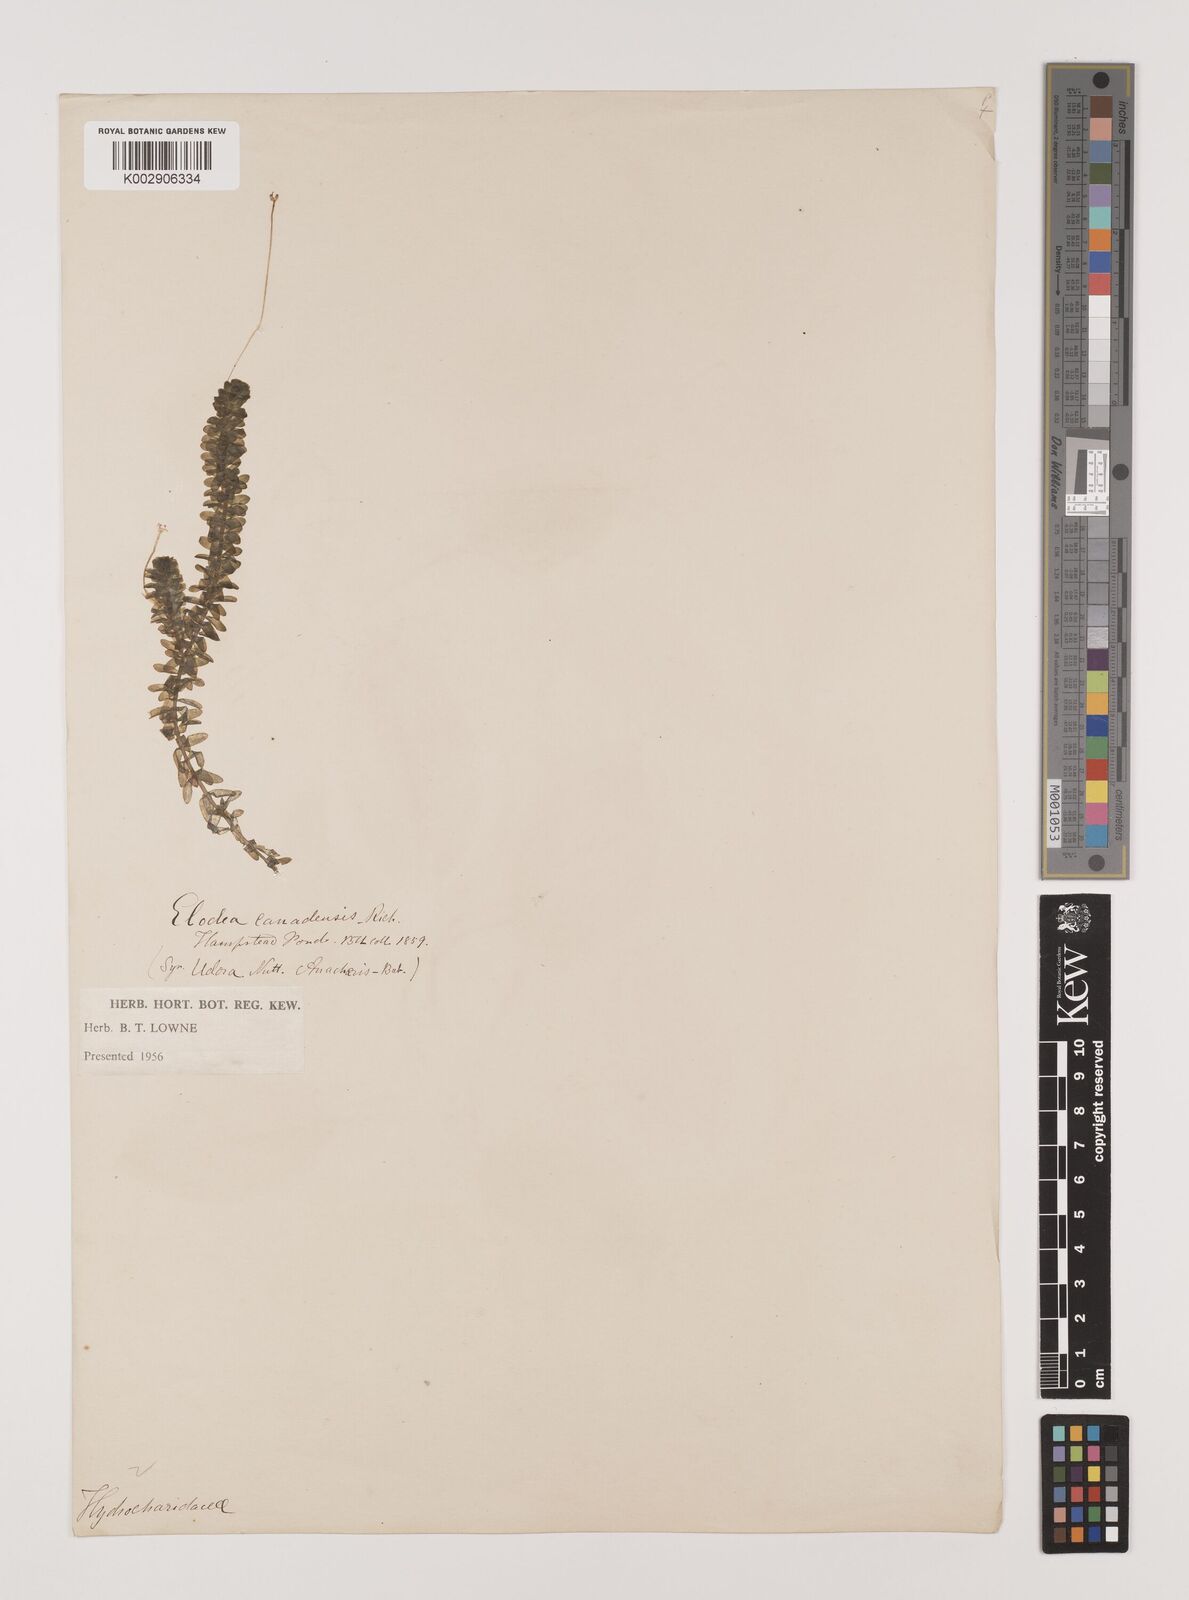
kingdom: Plantae
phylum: Tracheophyta
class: Liliopsida
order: Alismatales
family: Hydrocharitaceae
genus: Elodea
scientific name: Elodea canadensis
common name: Canadian waterweed
